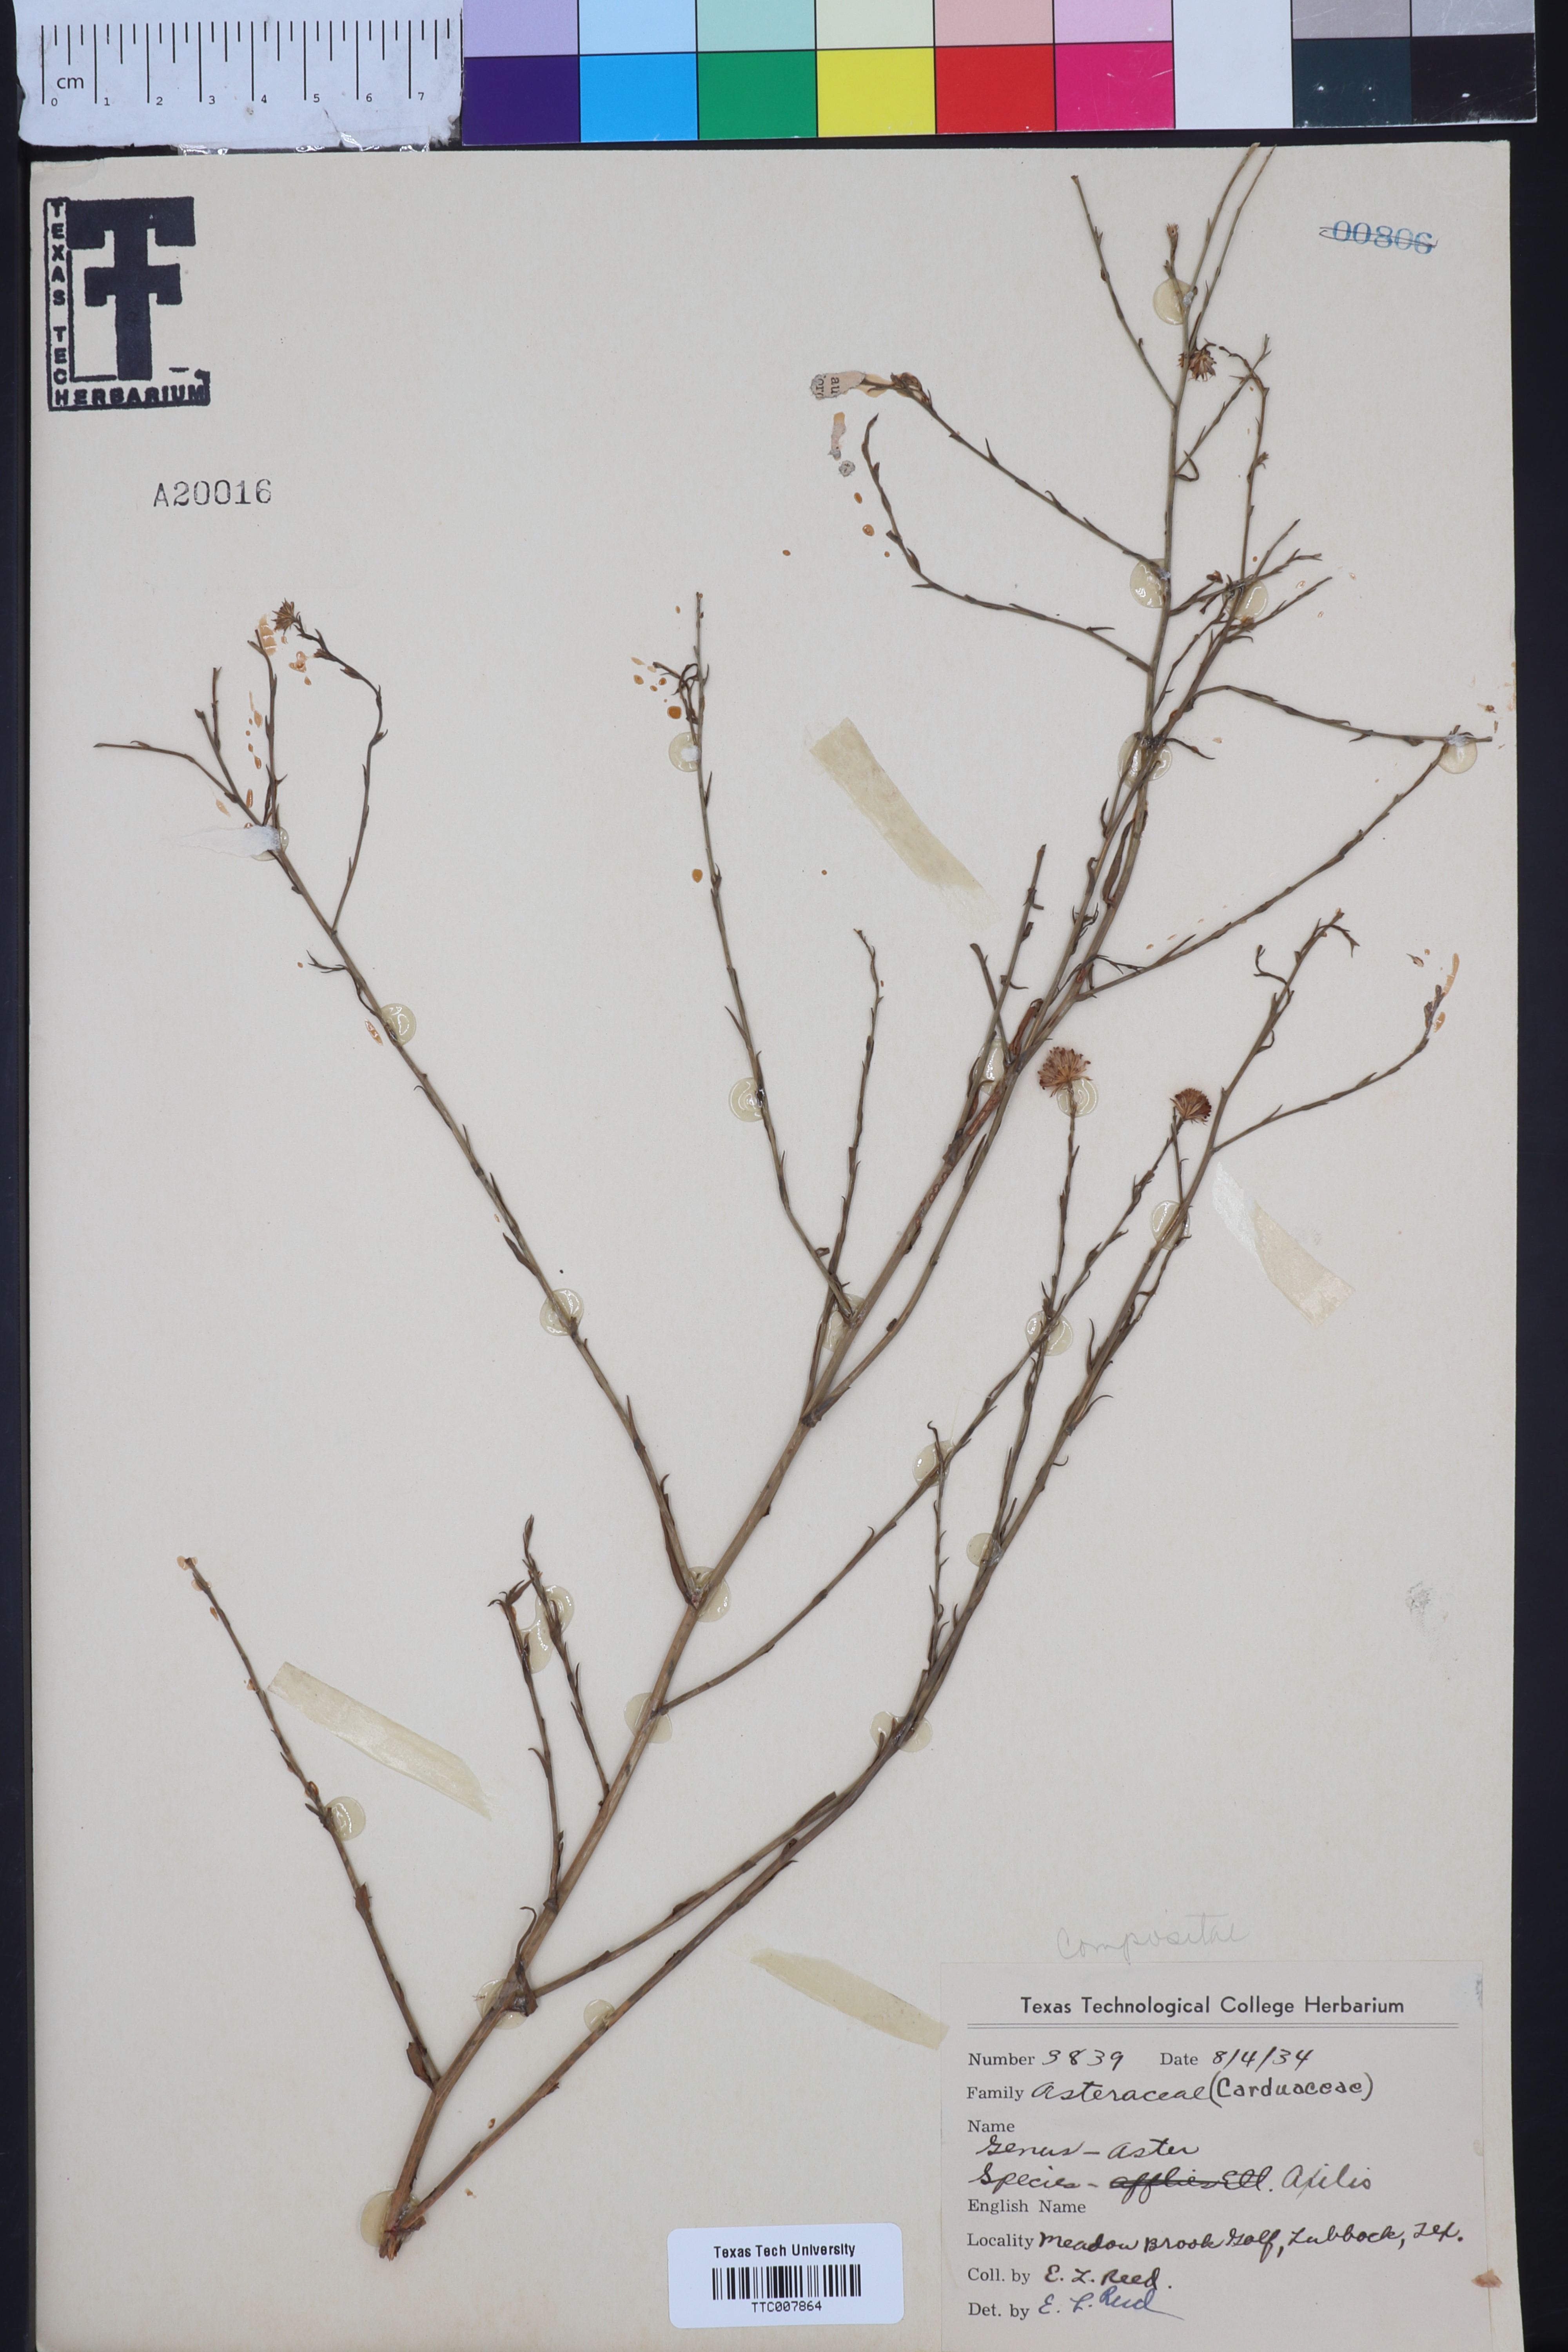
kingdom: Plantae
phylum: Tracheophyta
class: Magnoliopsida
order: Asterales
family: Asteraceae
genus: Olearia
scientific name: Olearia axillaris
